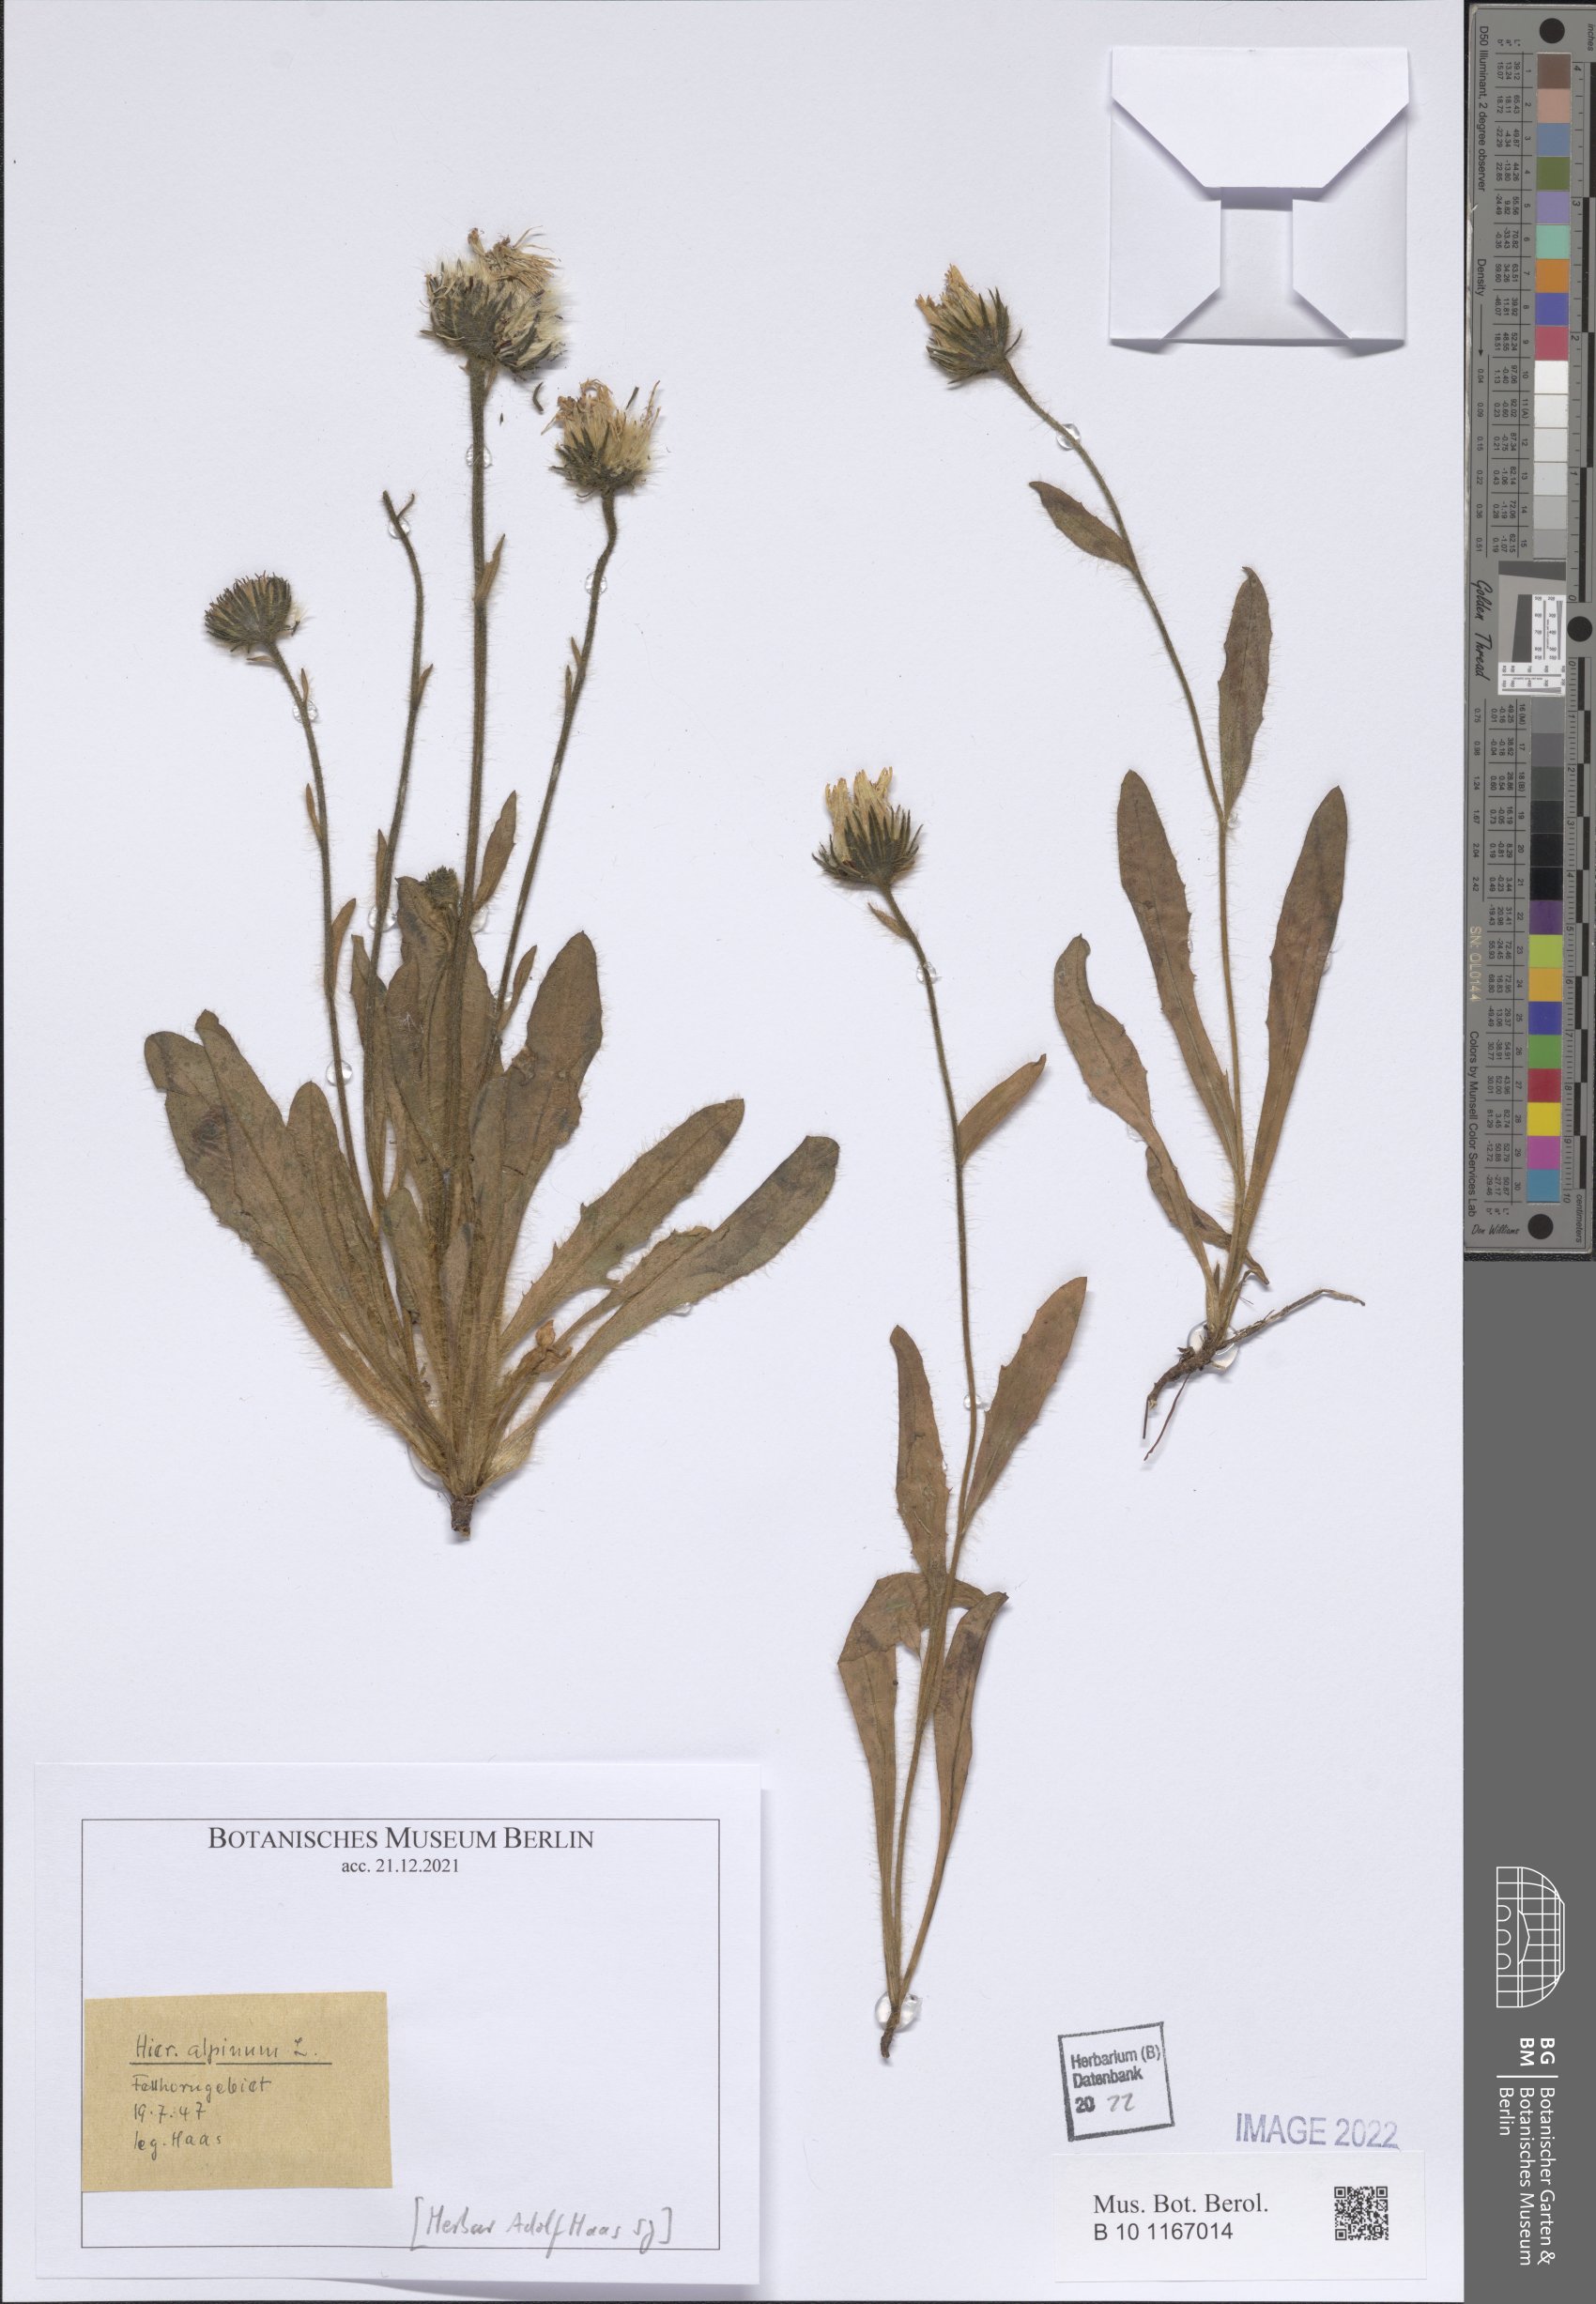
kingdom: Plantae
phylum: Tracheophyta
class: Magnoliopsida
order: Asterales
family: Asteraceae
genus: Hieracium
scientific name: Hieracium alpinum
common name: Alpine hawkweed
